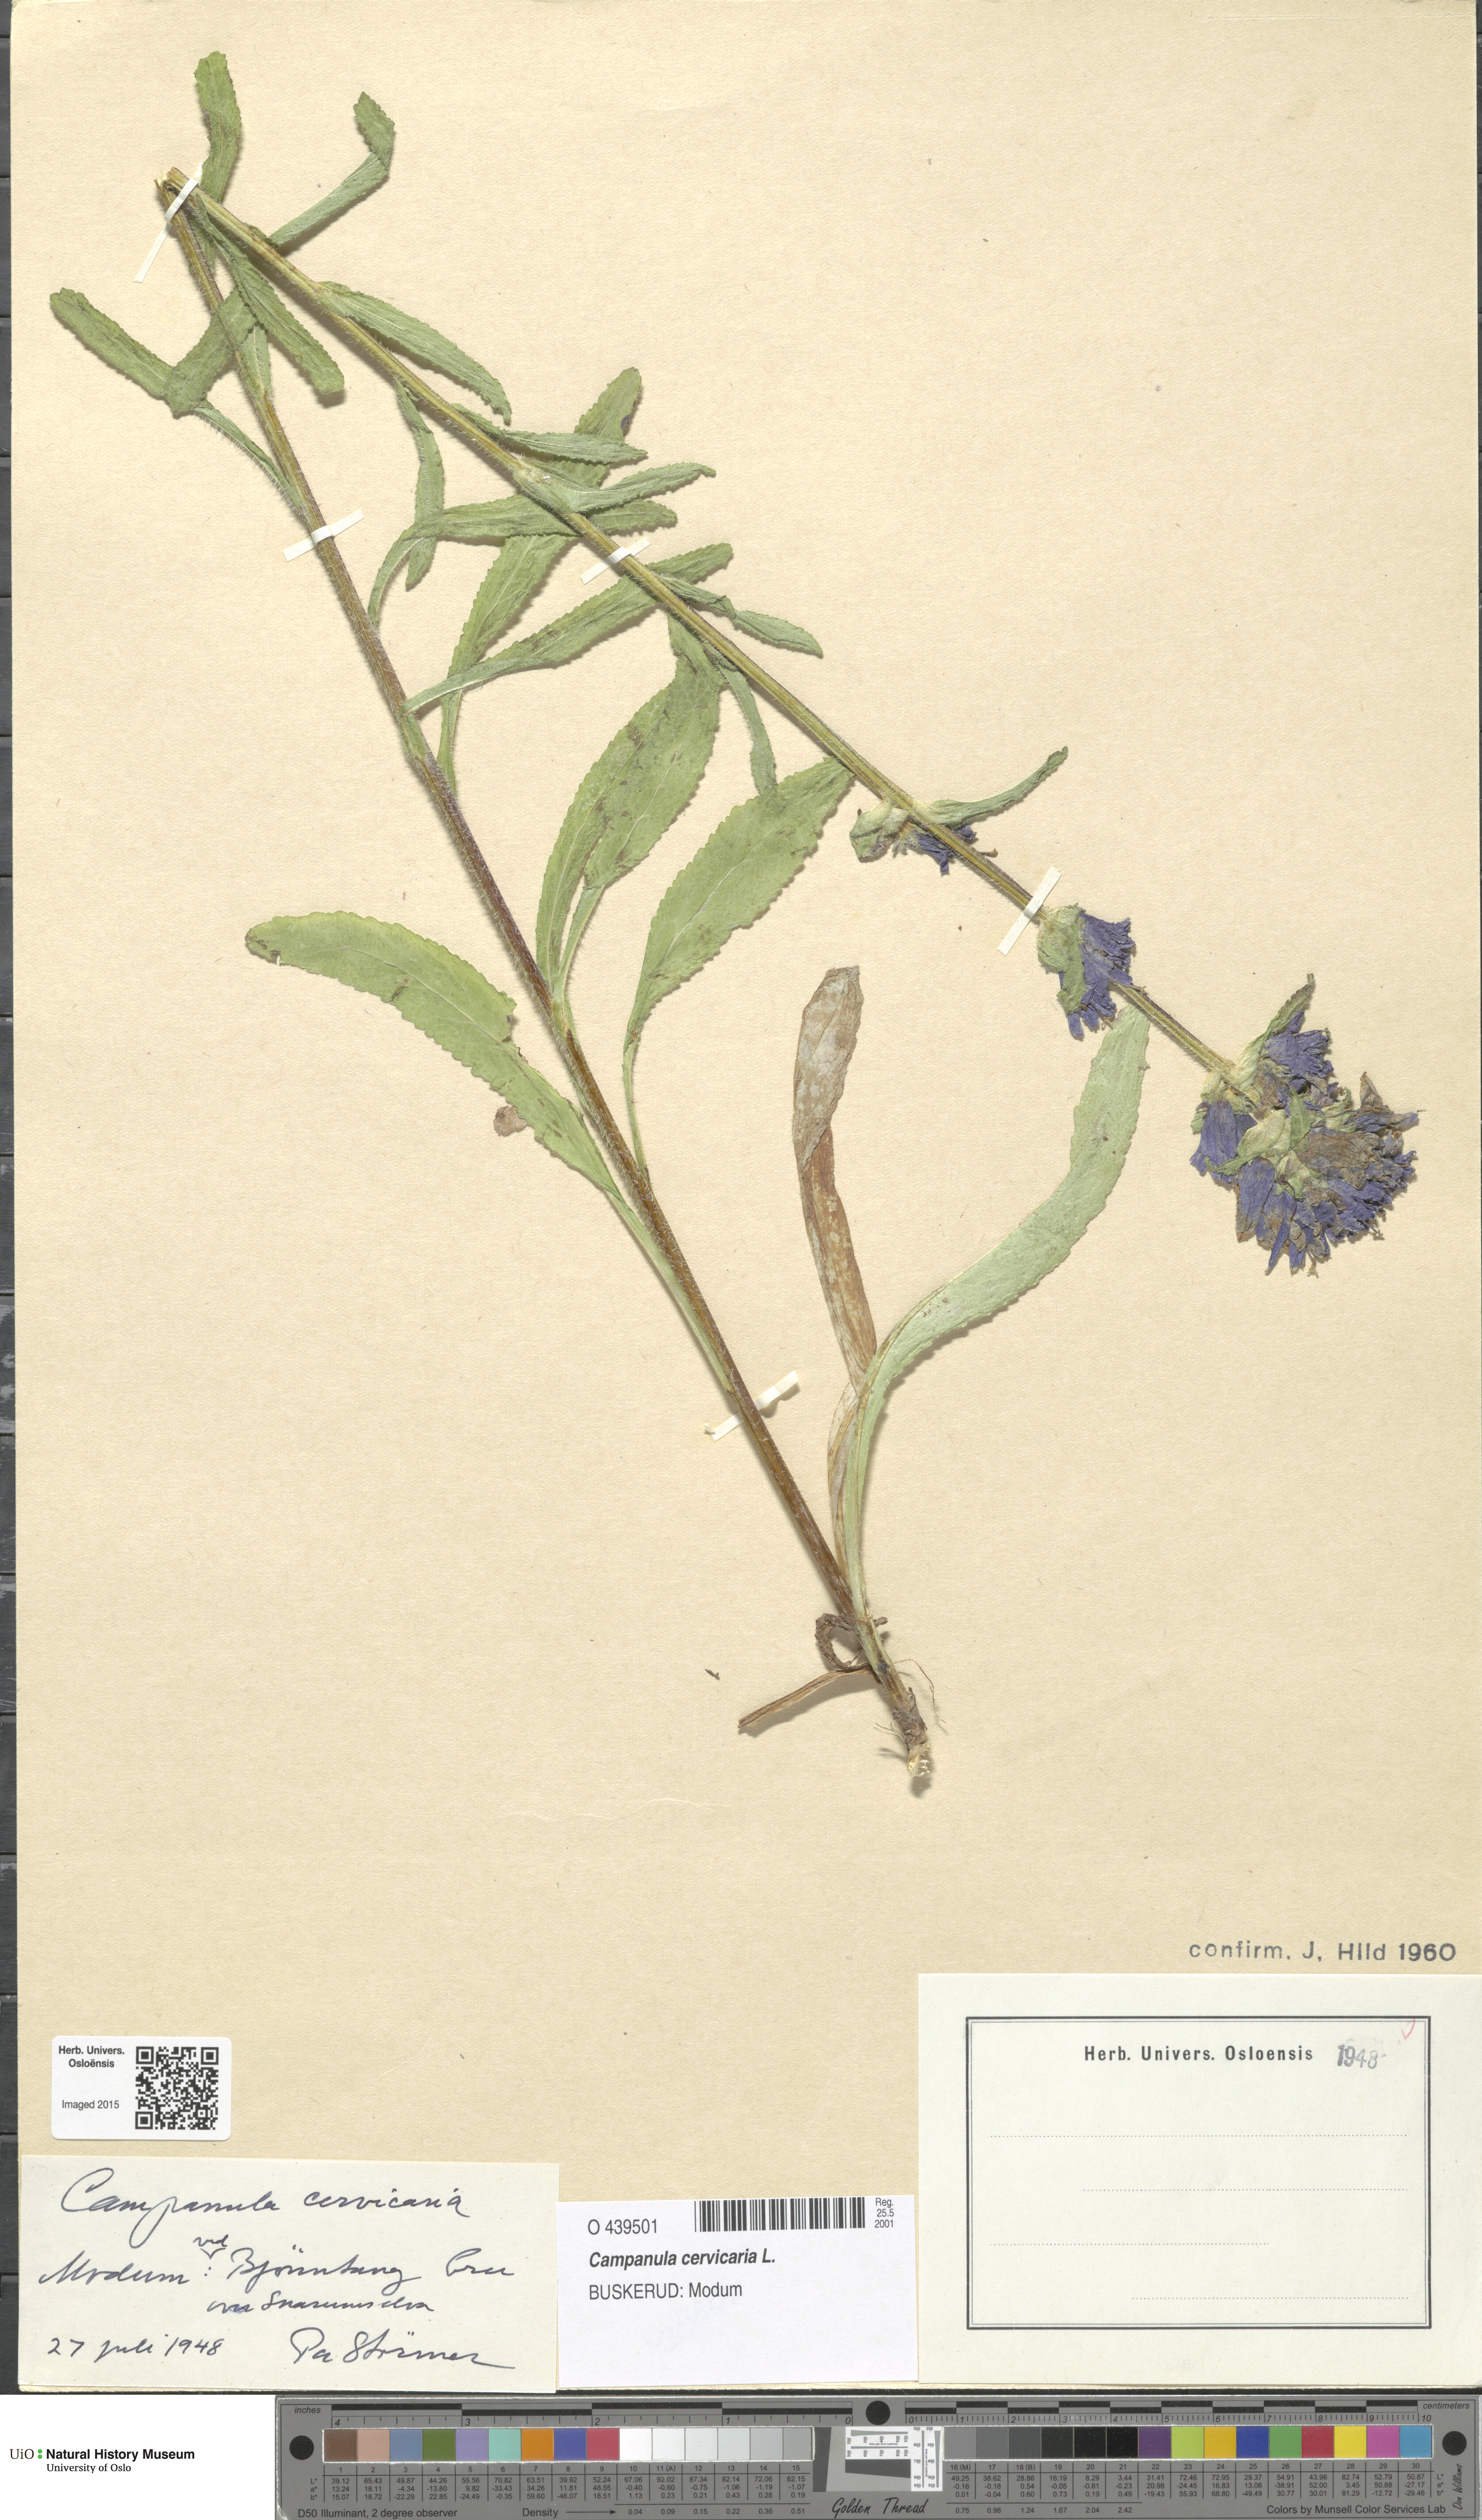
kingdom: Plantae
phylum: Tracheophyta
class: Magnoliopsida
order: Asterales
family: Campanulaceae
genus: Campanula
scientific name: Campanula cervicaria
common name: Bristly bellflower
